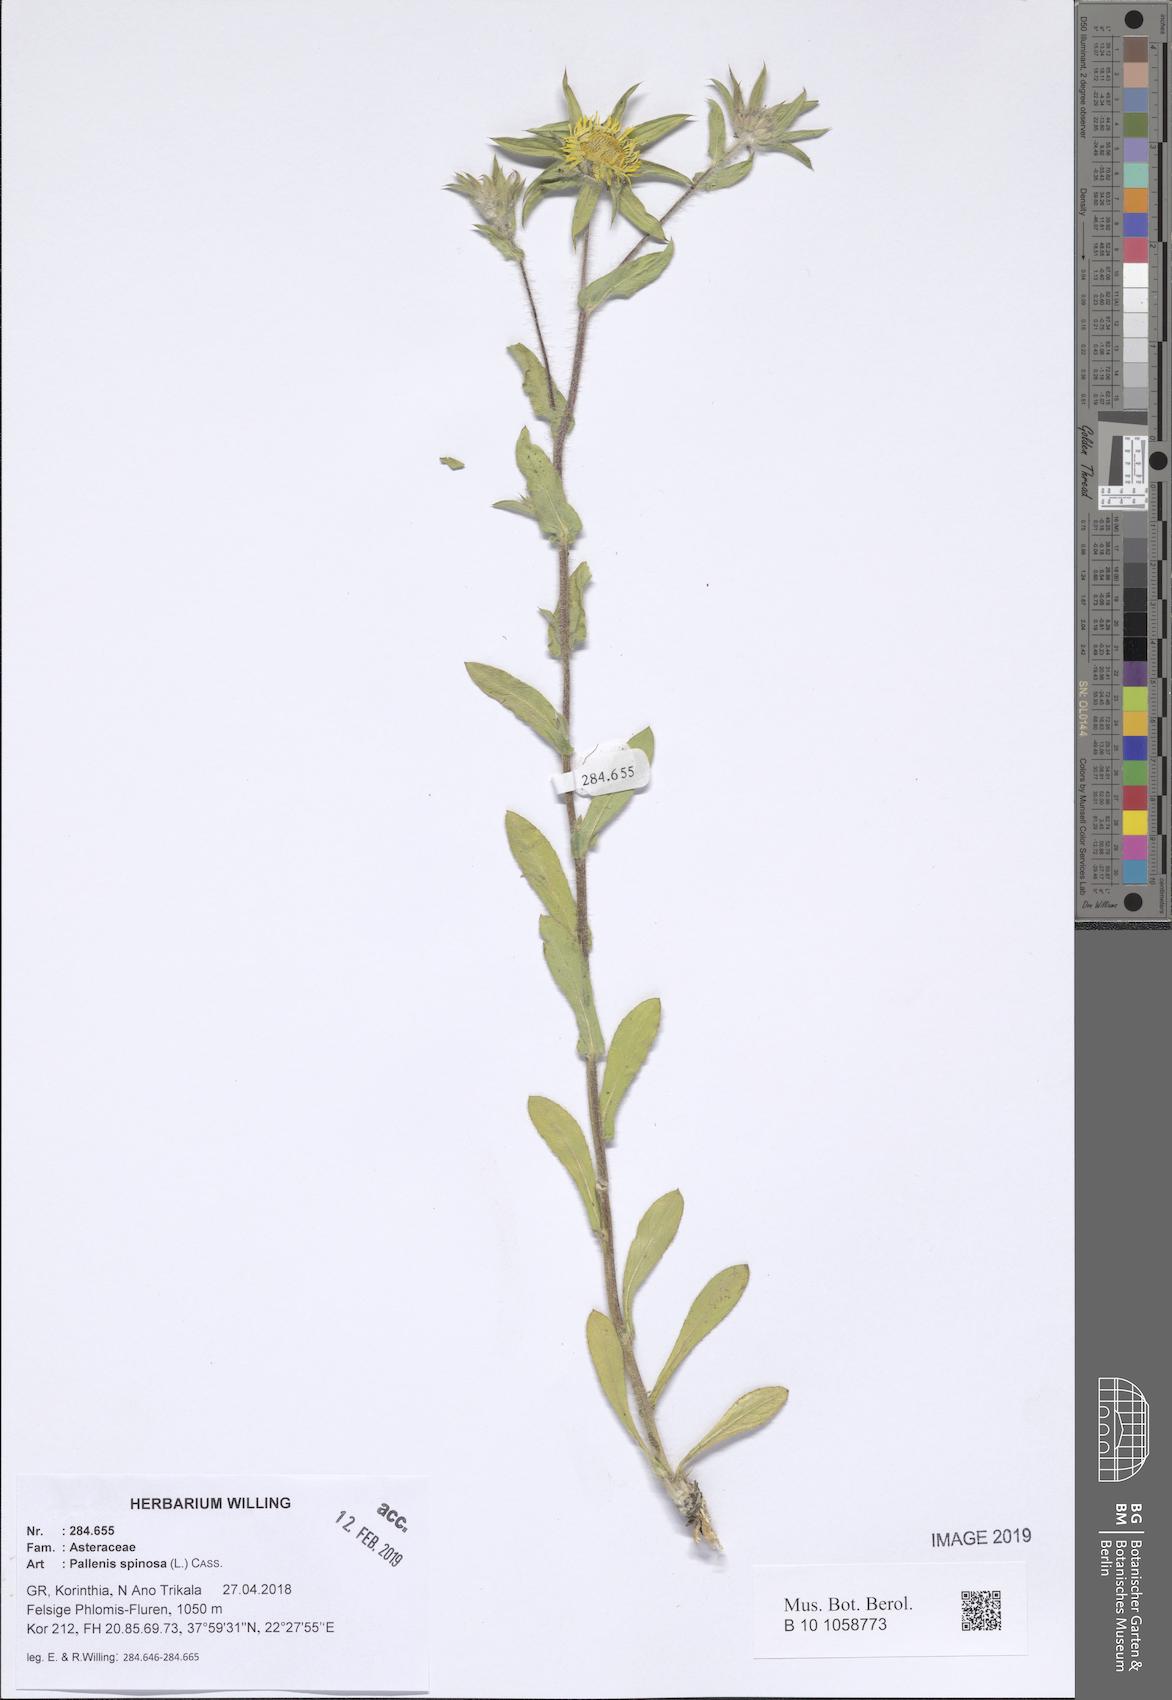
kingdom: Plantae
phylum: Tracheophyta
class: Magnoliopsida
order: Asterales
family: Asteraceae
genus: Pallenis
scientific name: Pallenis spinosa
